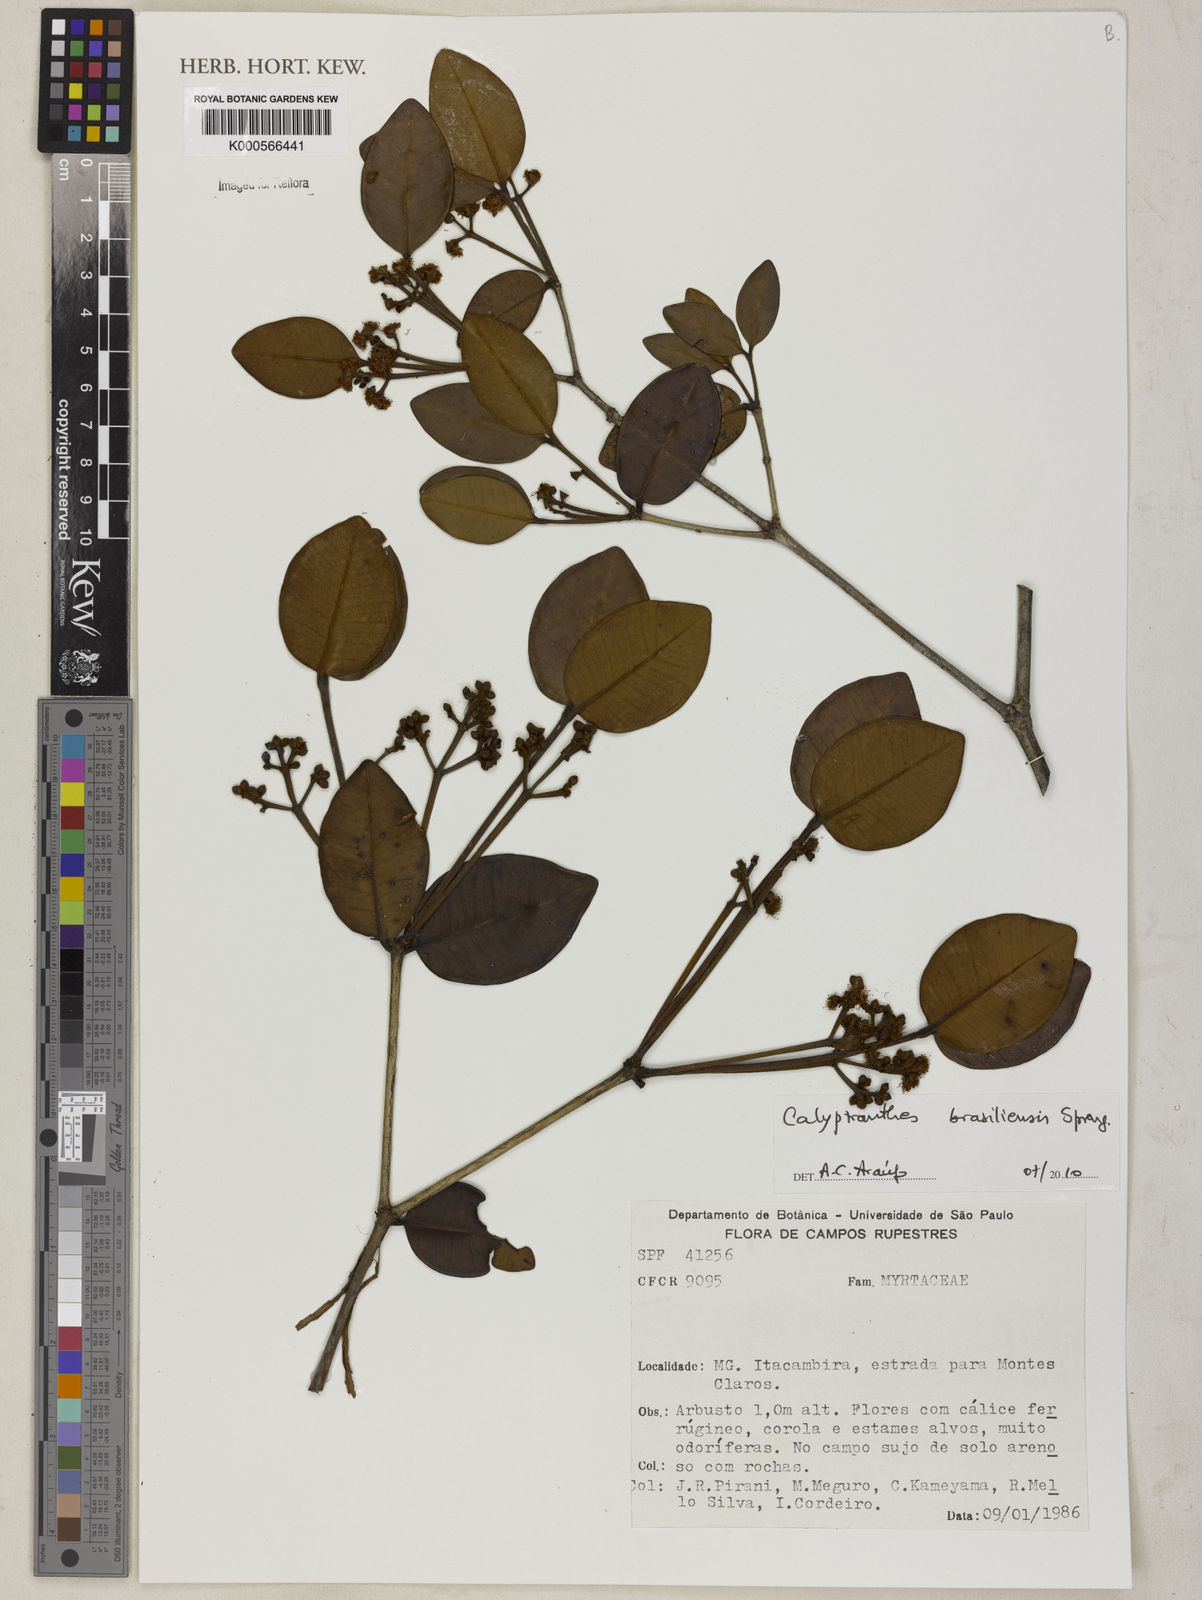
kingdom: Plantae
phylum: Tracheophyta
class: Magnoliopsida
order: Myrtales
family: Myrtaceae
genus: Myrcia
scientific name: Myrcia neobrasiliensis
